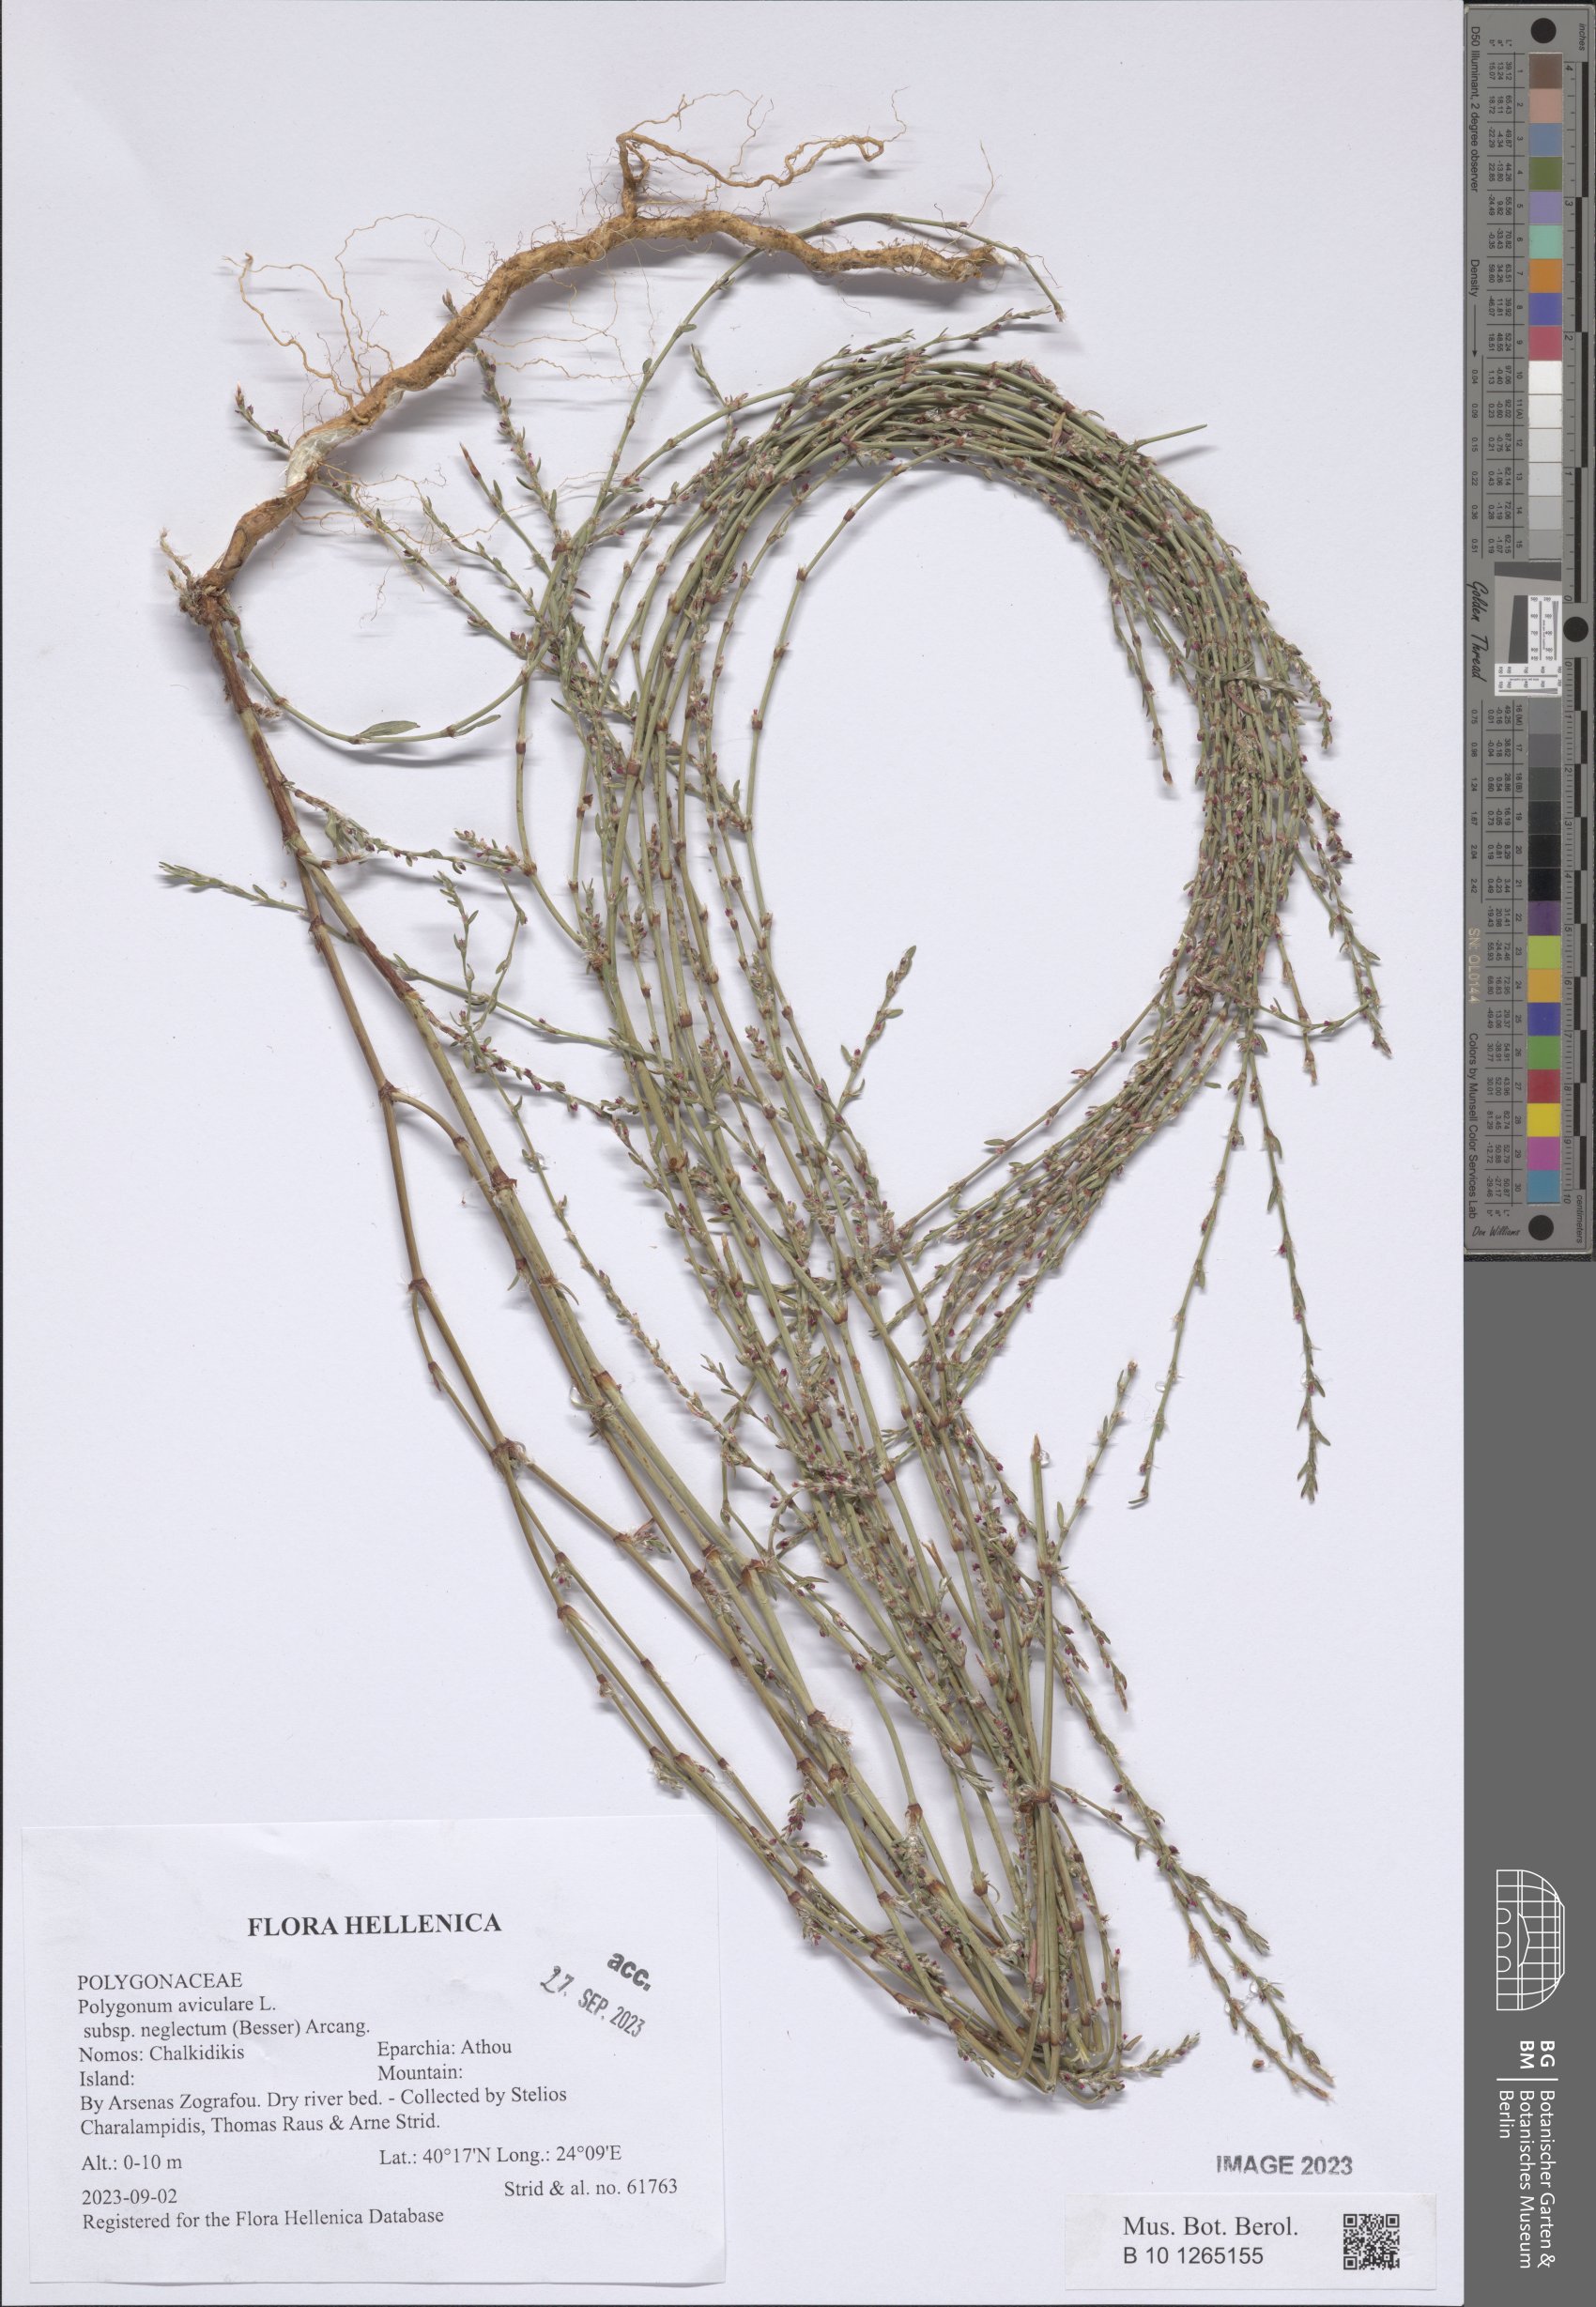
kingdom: Plantae
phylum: Tracheophyta
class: Magnoliopsida
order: Caryophyllales
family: Polygonaceae
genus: Polygonum
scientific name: Polygonum aviculare
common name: Prostrate knotweed
